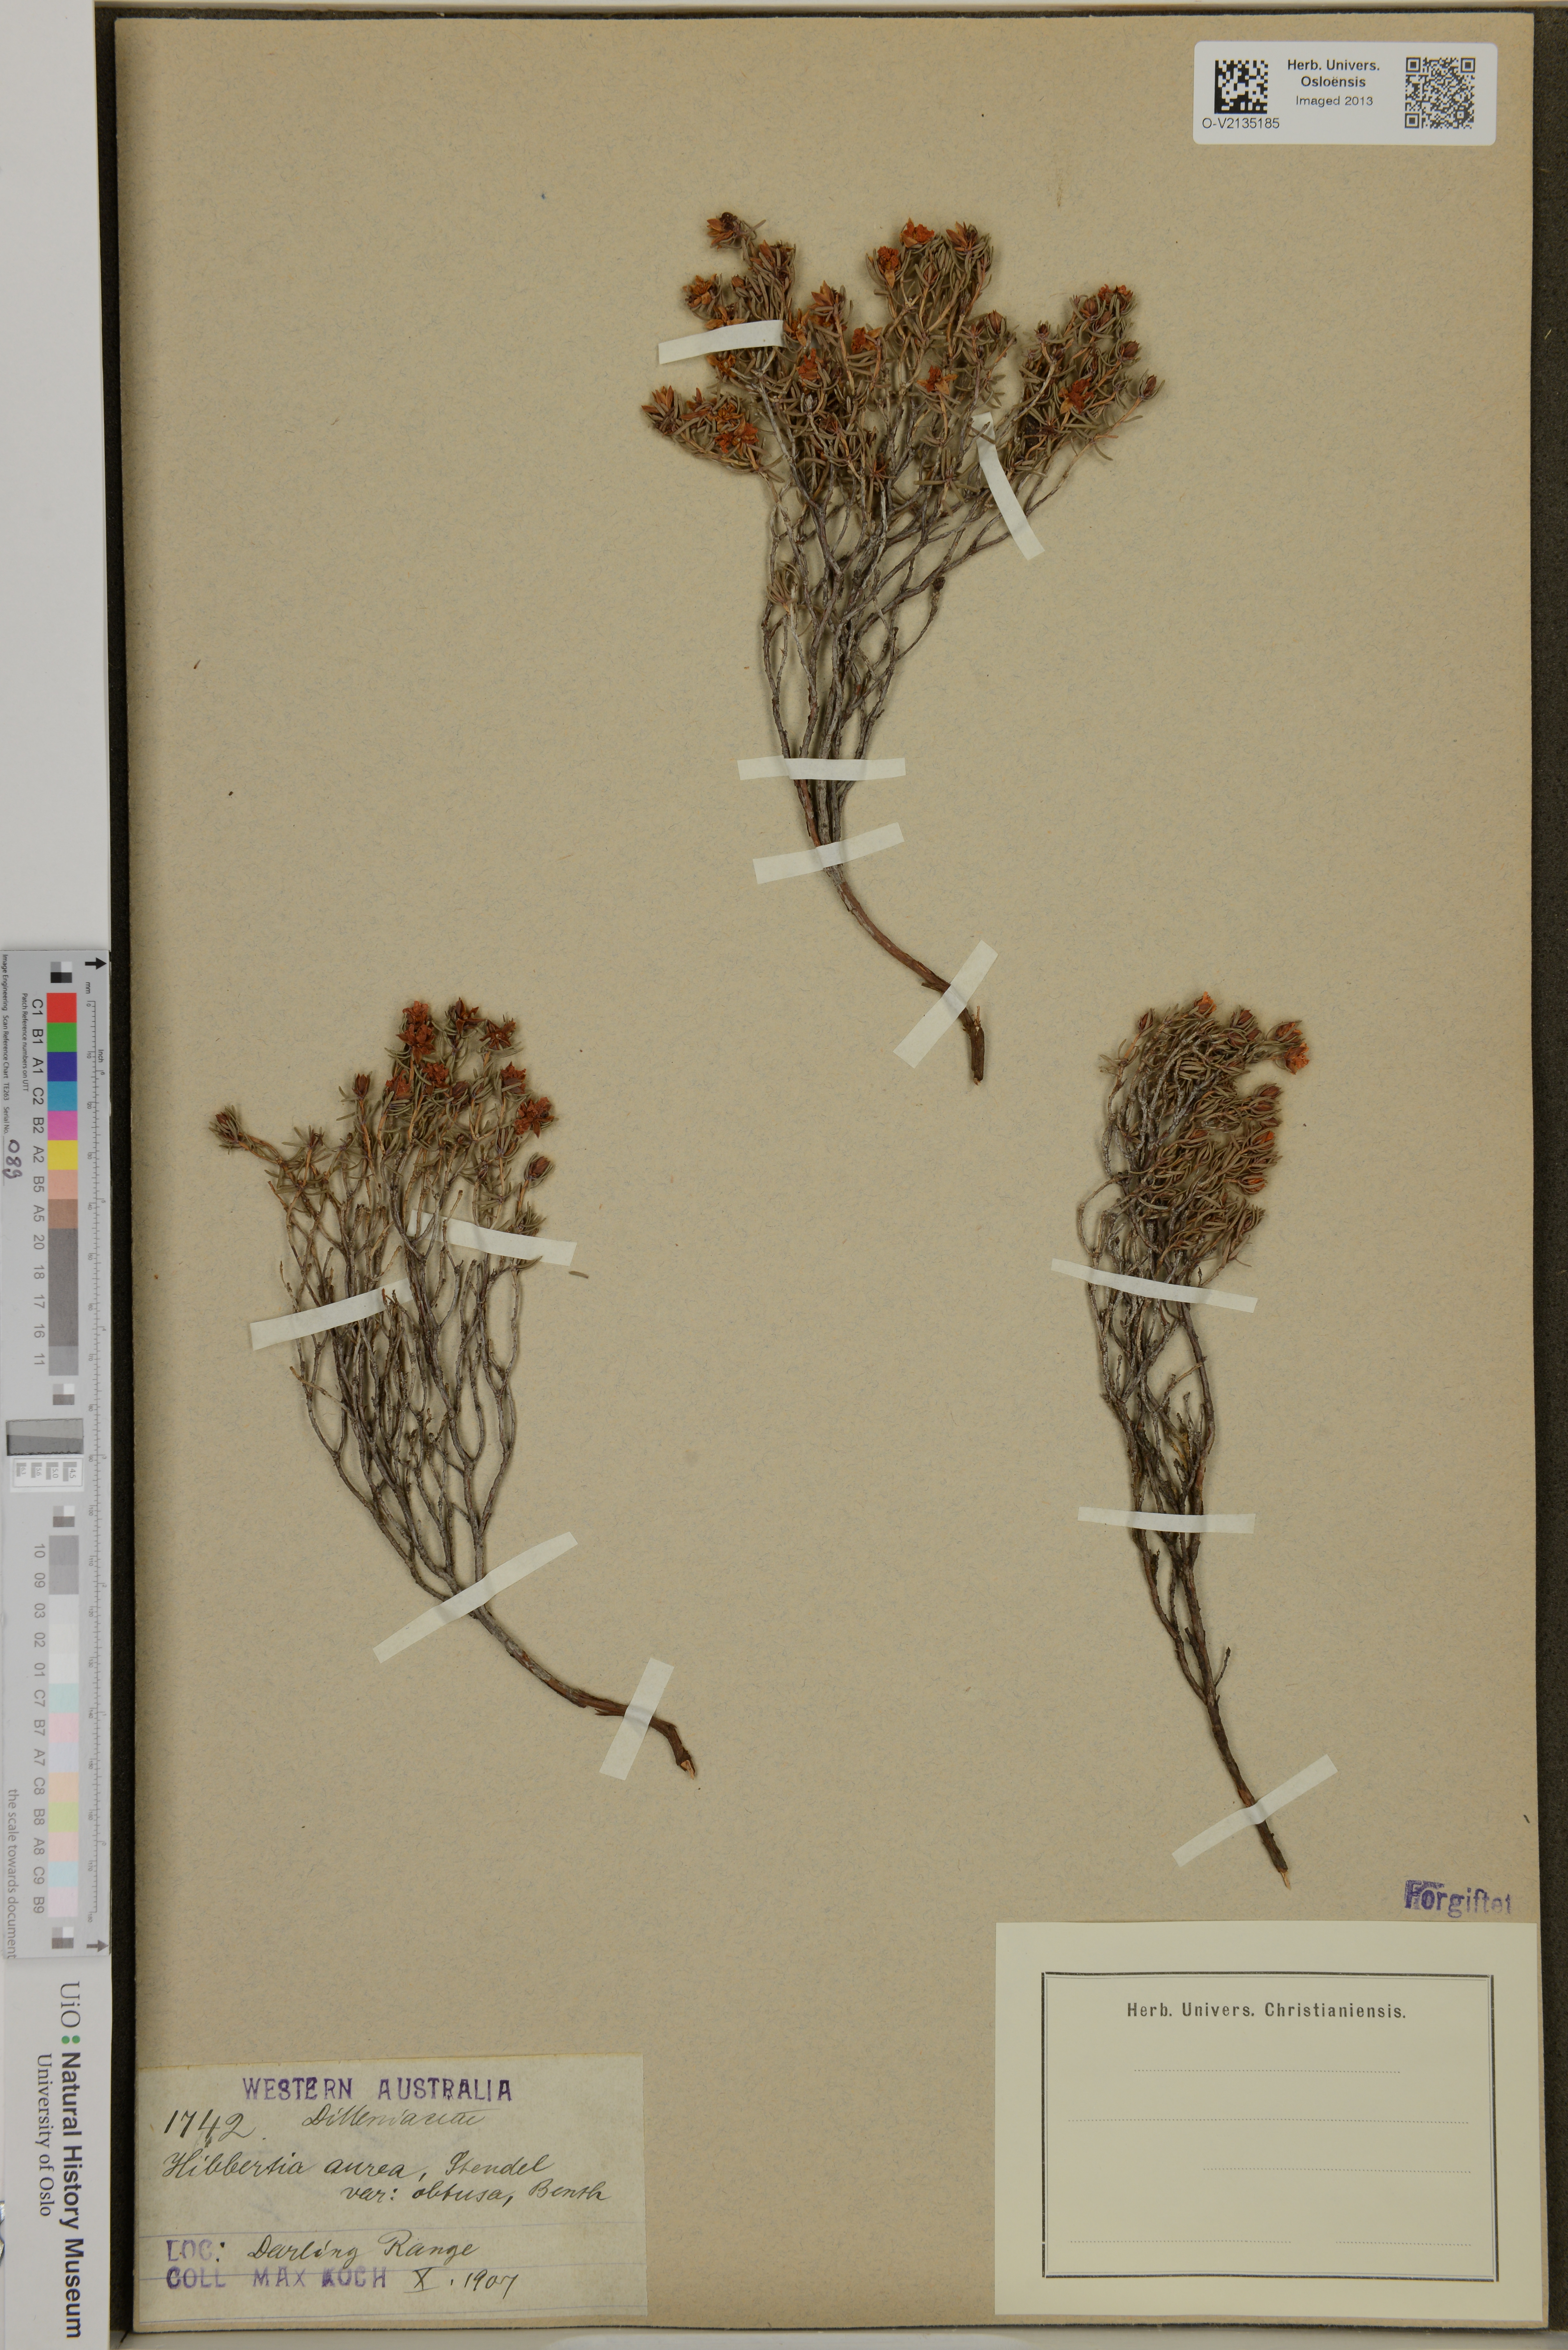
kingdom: Plantae
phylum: Tracheophyta
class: Magnoliopsida
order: Dilleniales
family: Dilleniaceae
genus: Hibbertia
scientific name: Hibbertia aurea
